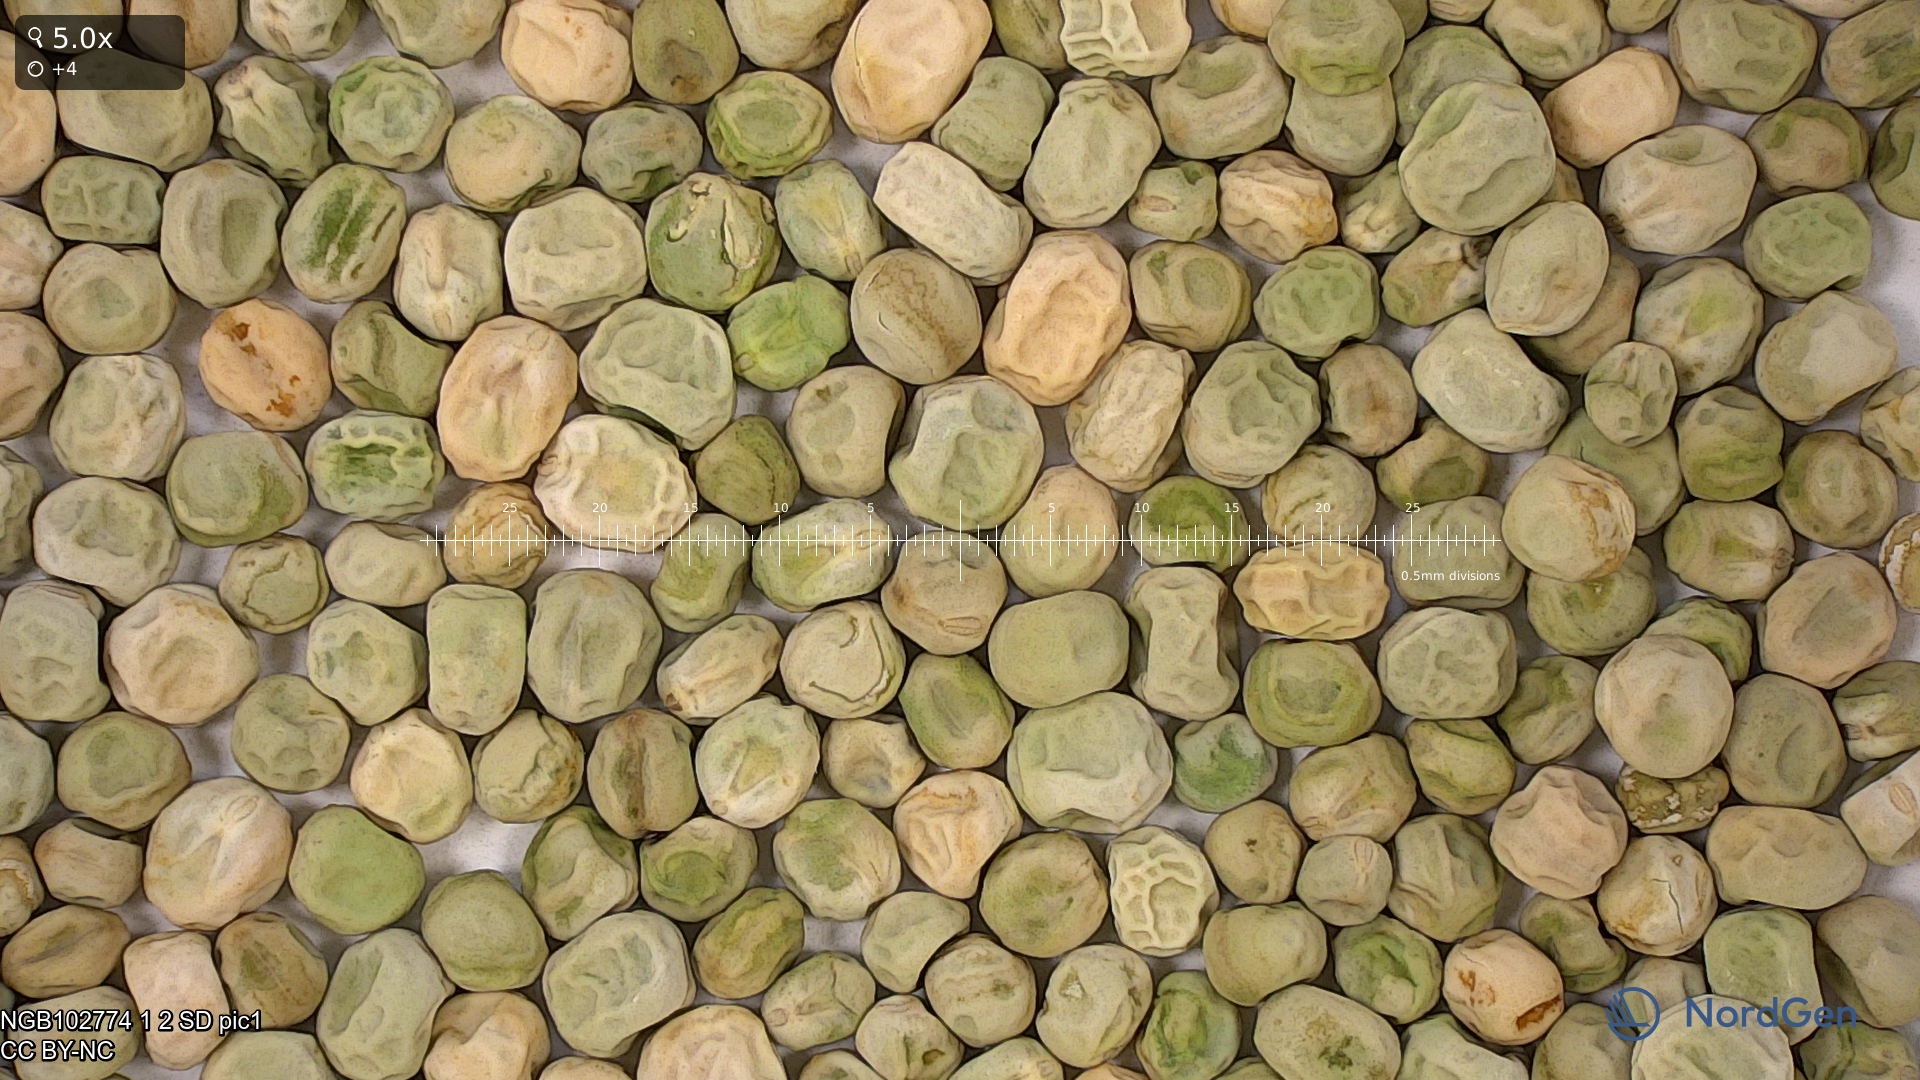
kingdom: Plantae
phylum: Tracheophyta
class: Magnoliopsida
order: Fabales
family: Fabaceae
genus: Lathyrus
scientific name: Lathyrus oleraceus
